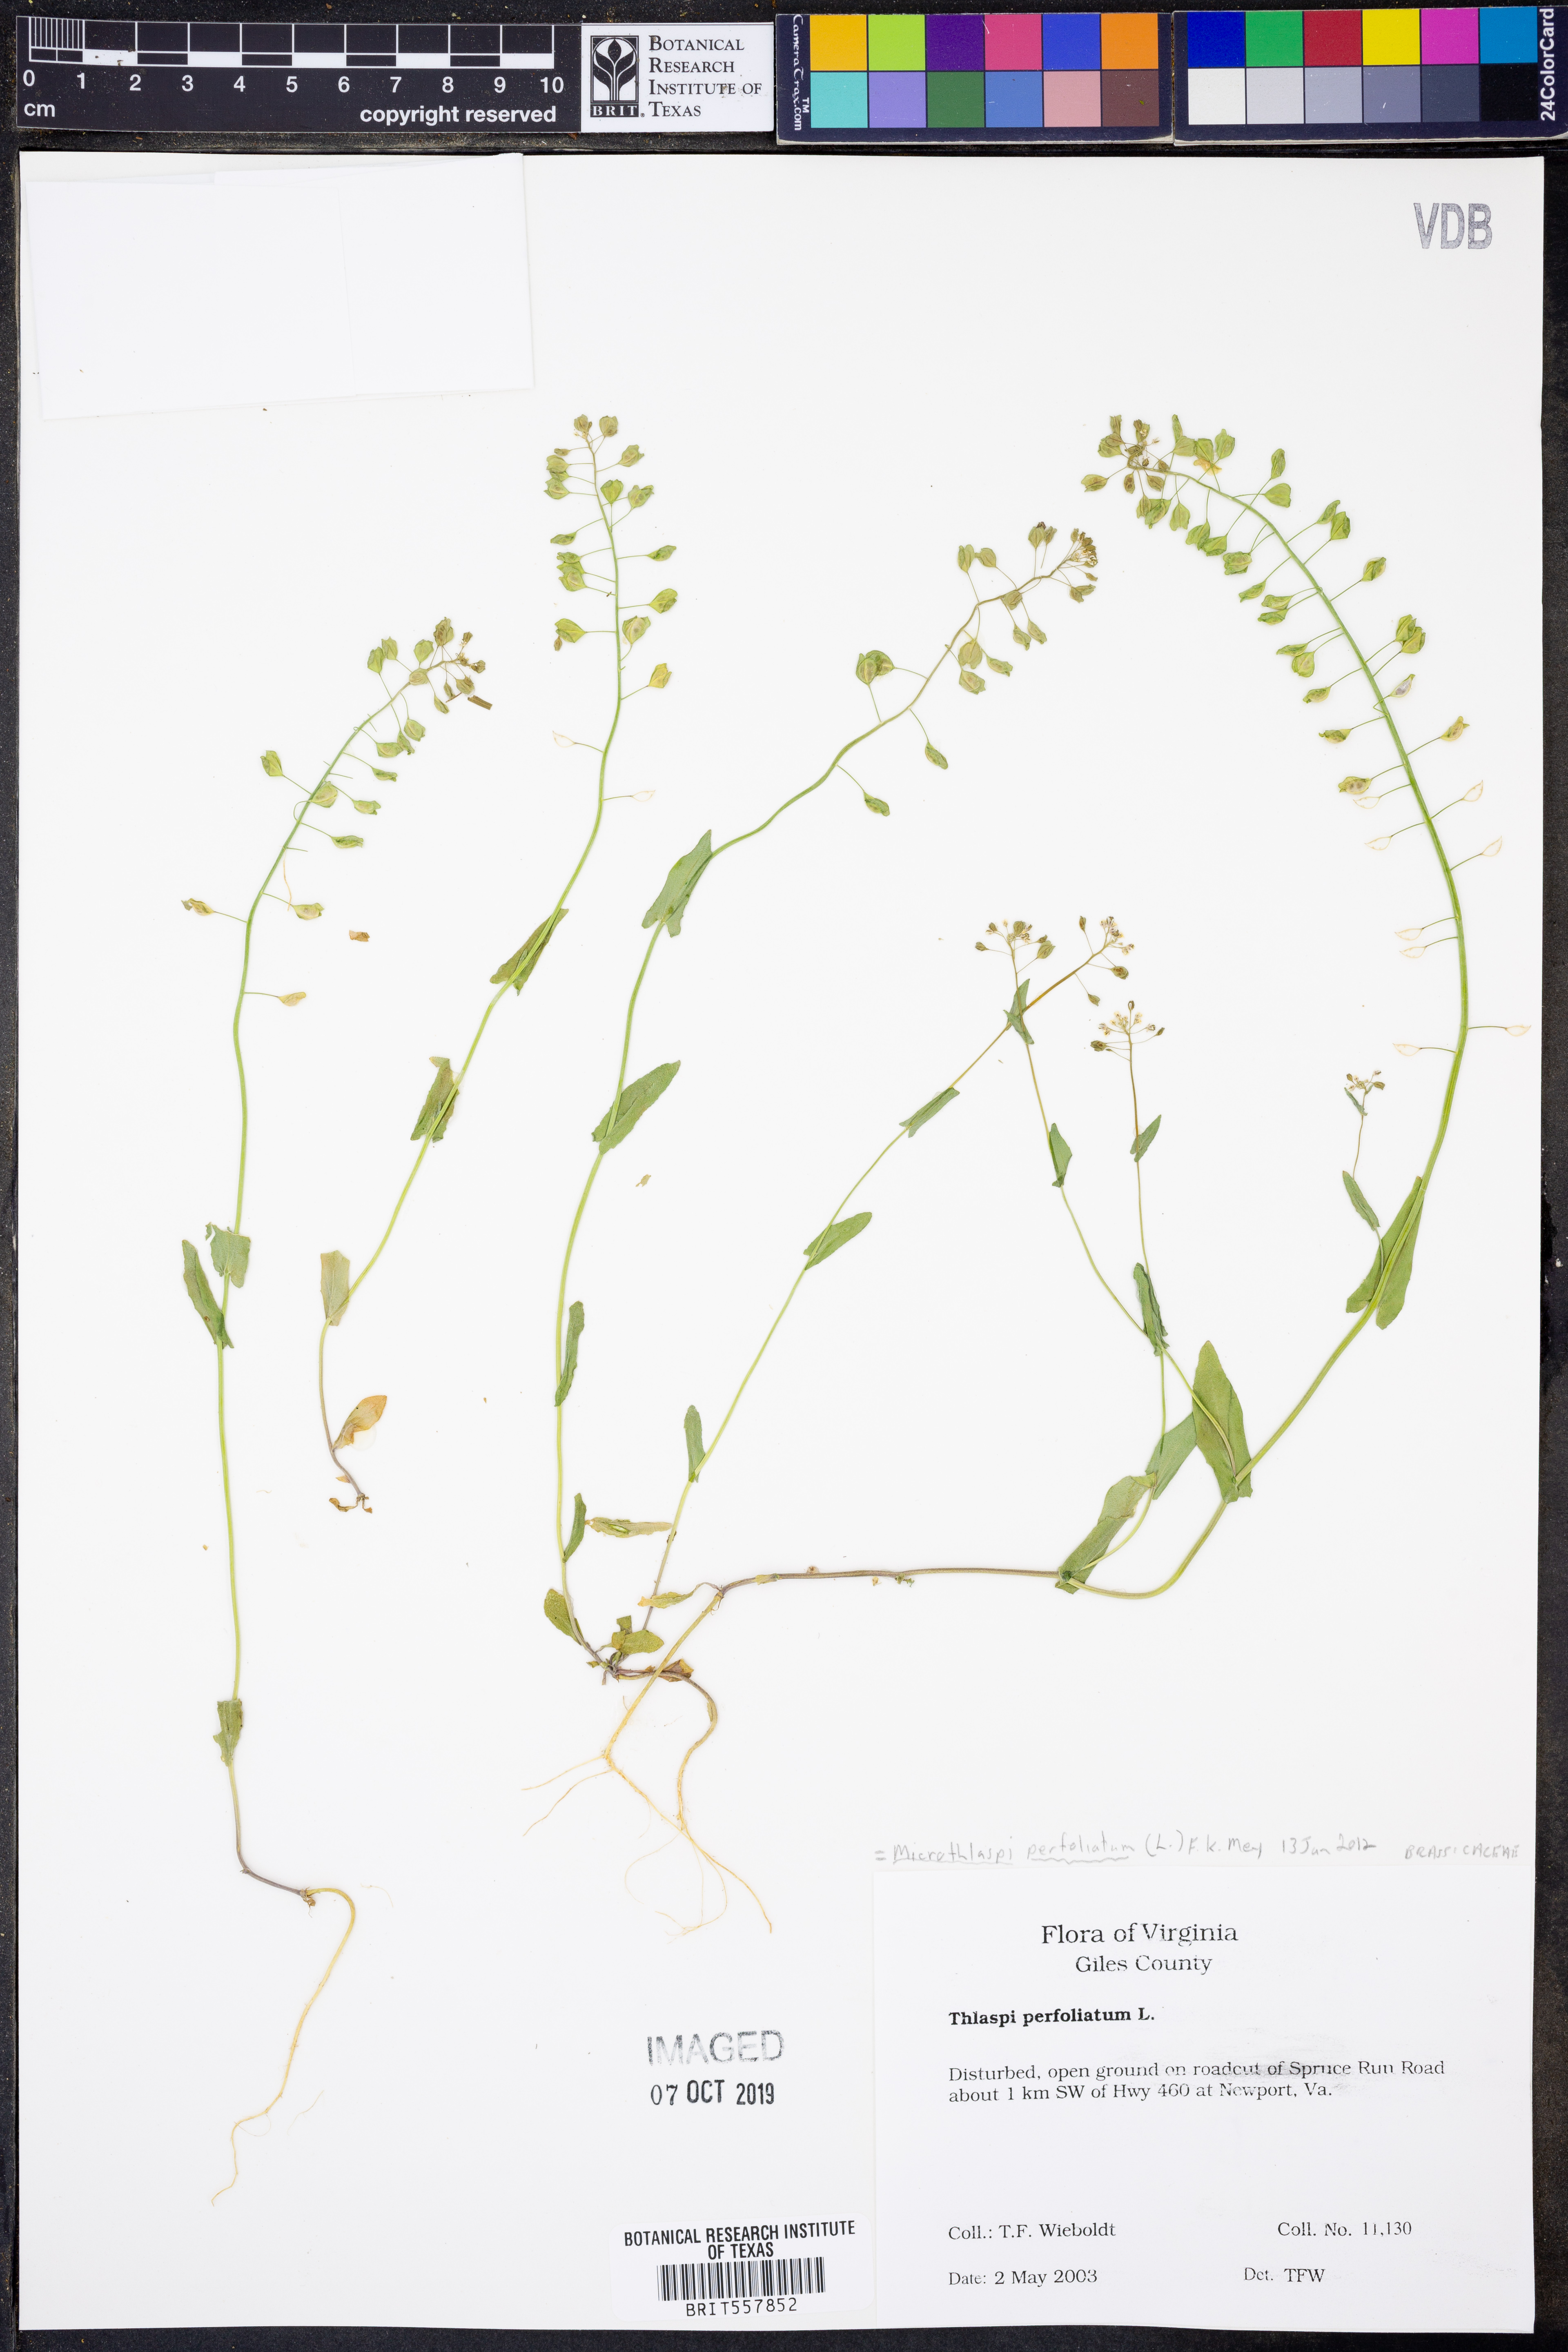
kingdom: Plantae
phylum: Tracheophyta
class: Magnoliopsida
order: Brassicales
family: Brassicaceae
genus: Noccaea
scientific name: Noccaea perfoliata
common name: Perfoliate pennycress
